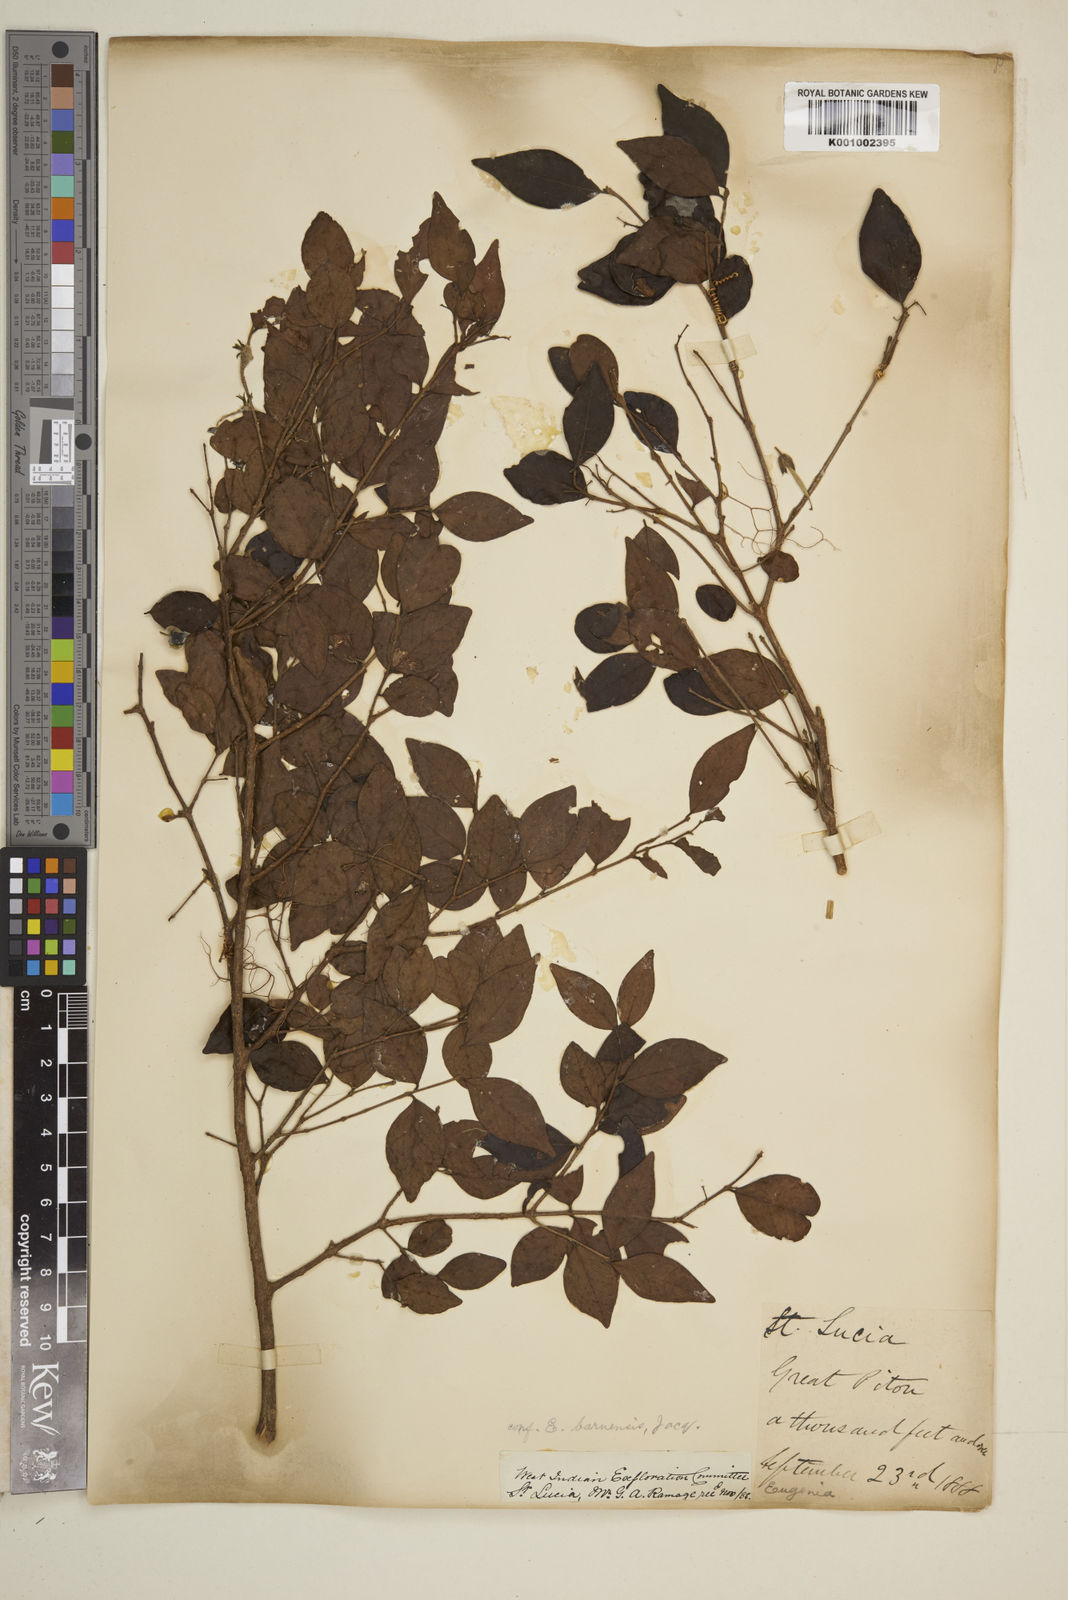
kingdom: Plantae
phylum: Tracheophyta
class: Magnoliopsida
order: Myrtales
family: Myrtaceae
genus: Eugenia
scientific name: Eugenia acapulcensis
